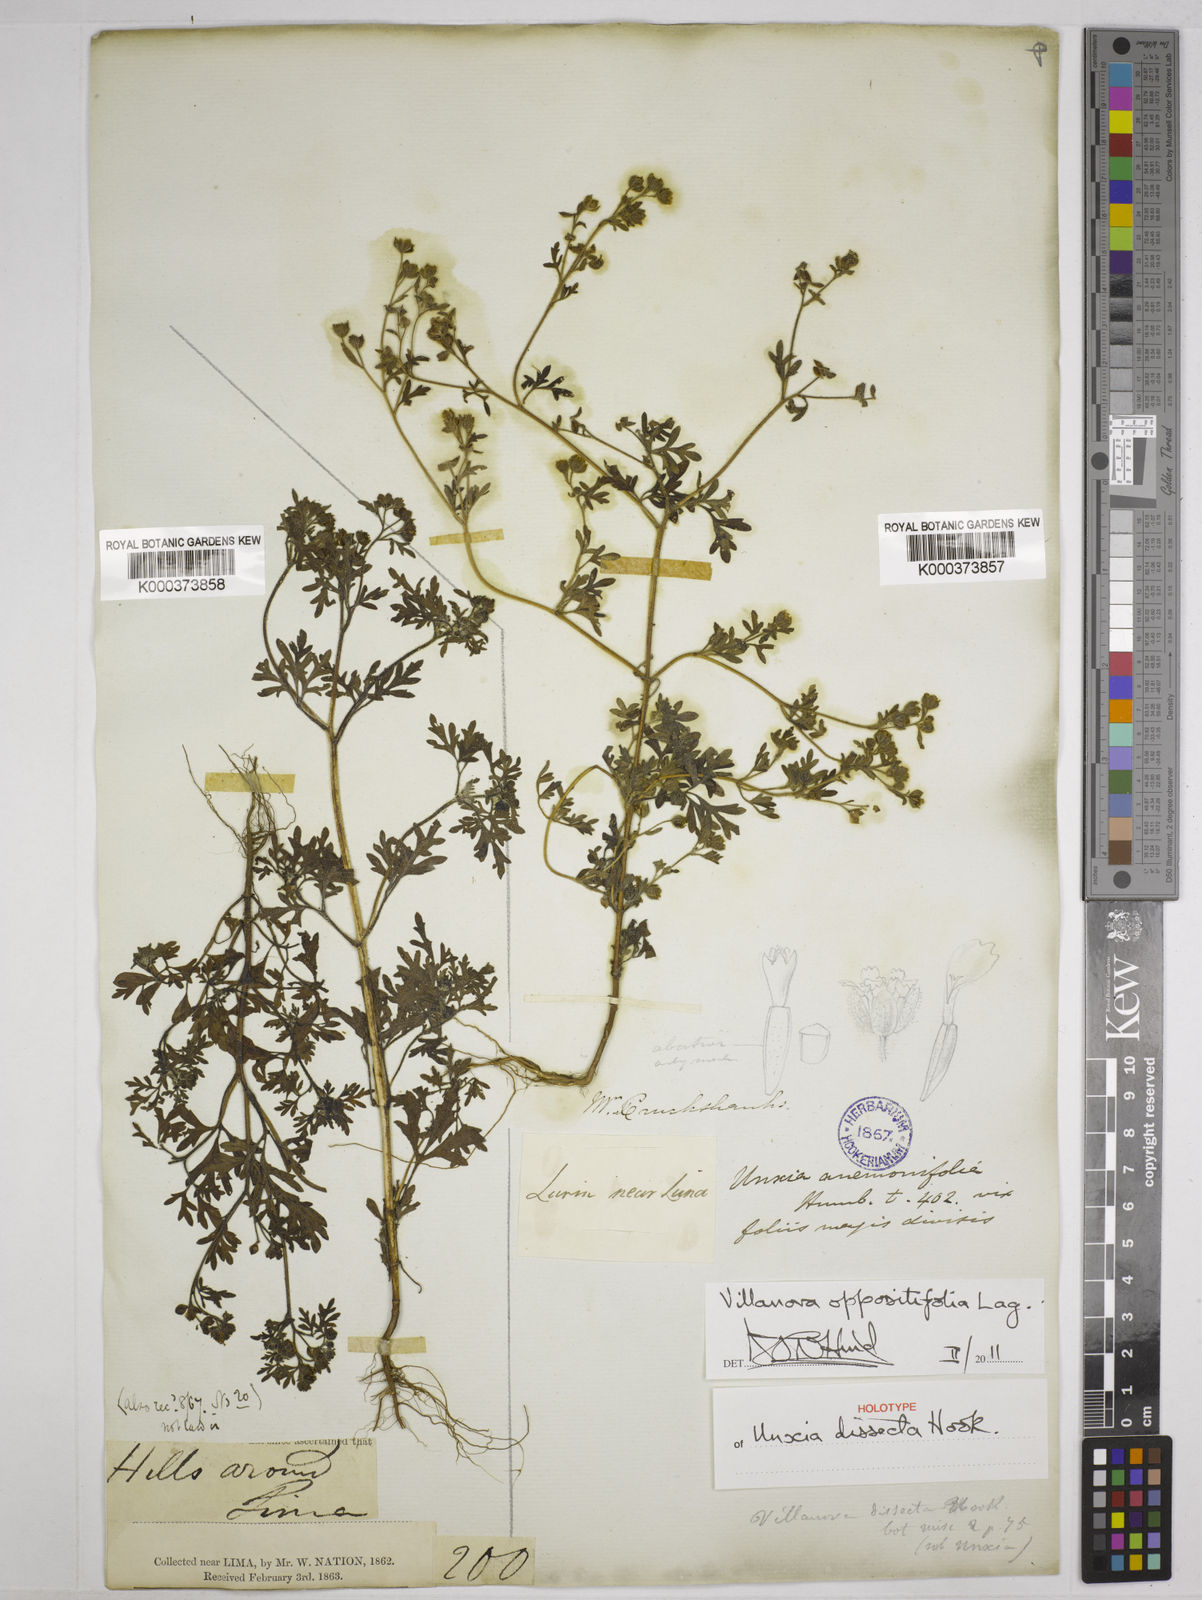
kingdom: Plantae
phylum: Tracheophyta
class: Magnoliopsida
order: Asterales
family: Asteraceae
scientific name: Asteraceae
